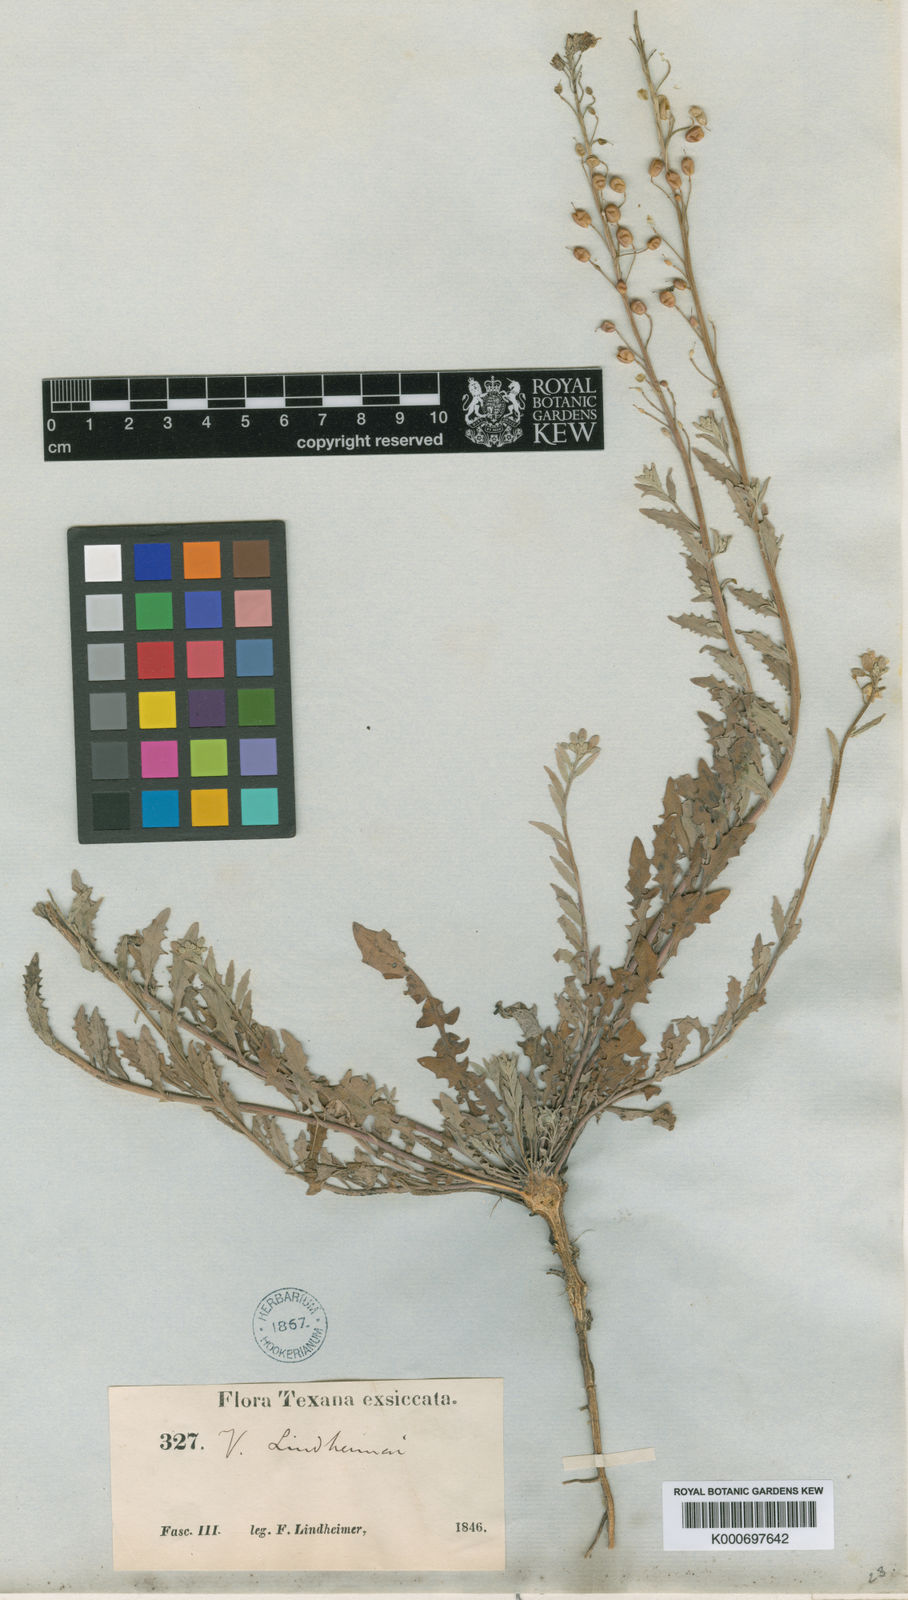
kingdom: Plantae
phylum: Tracheophyta
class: Magnoliopsida
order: Brassicales
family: Brassicaceae
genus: Physaria
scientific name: Physaria lindheimeri
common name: Lindheimer's bladderpod
